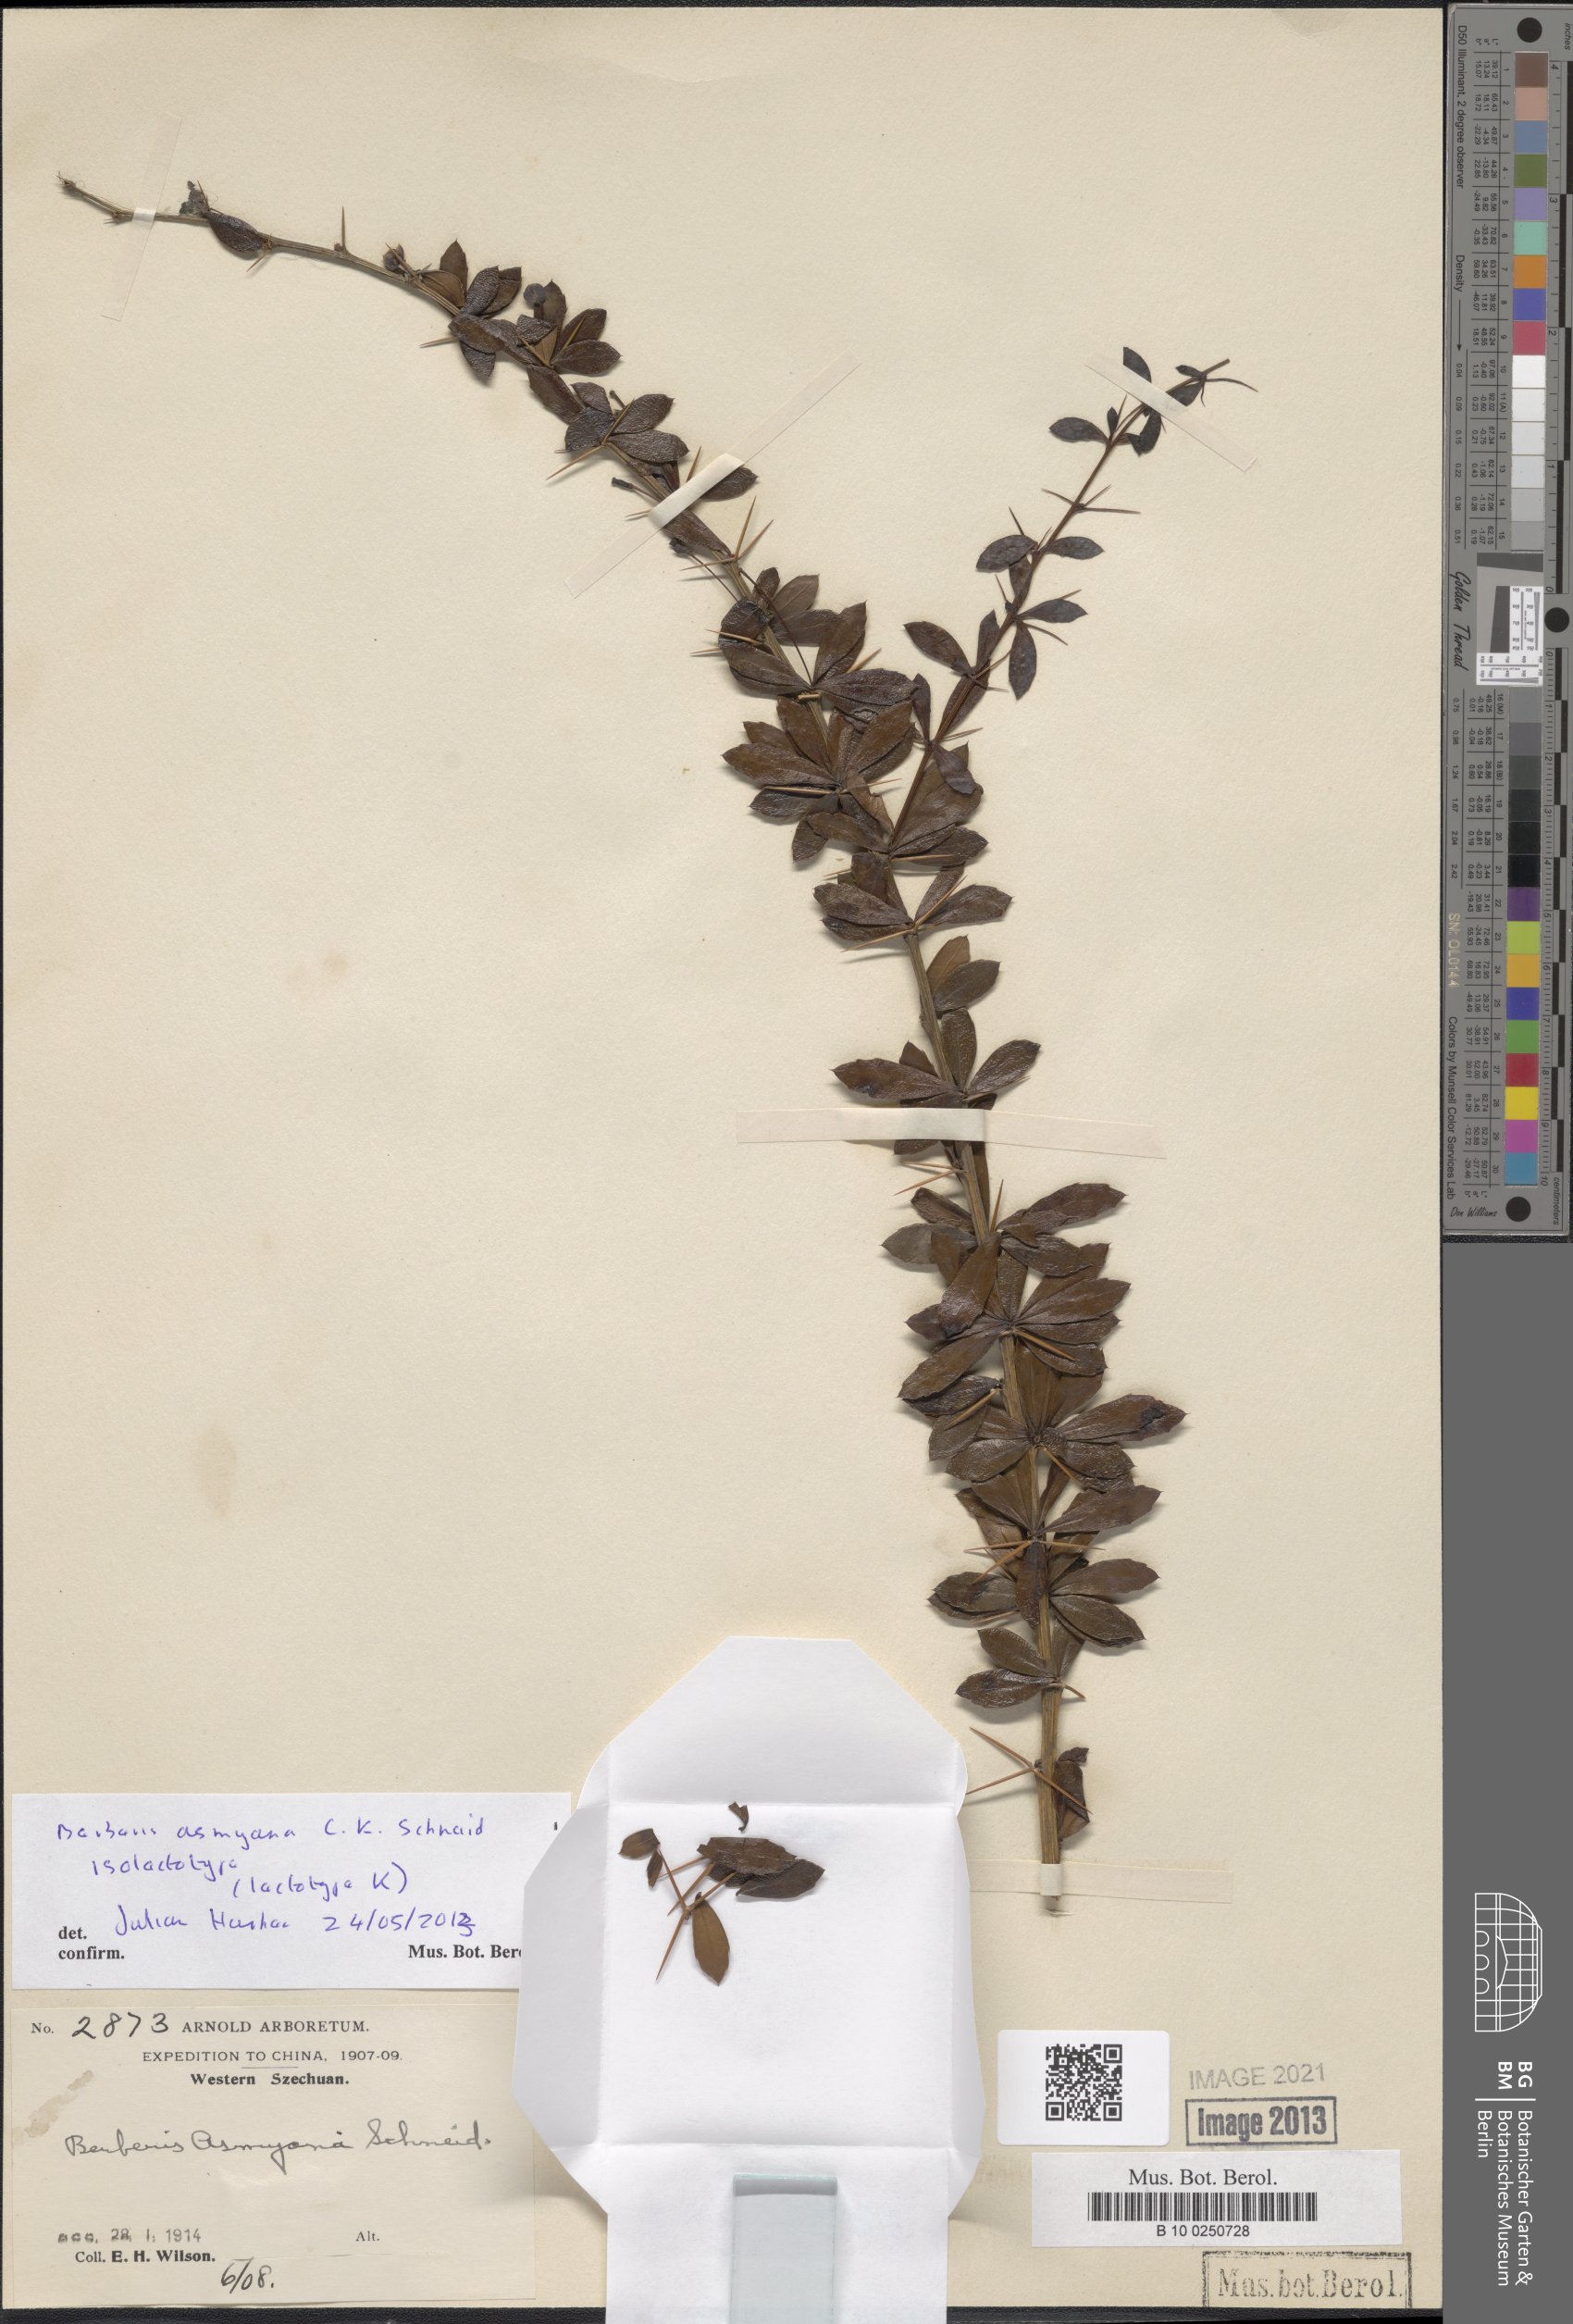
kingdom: Plantae
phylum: Tracheophyta
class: Magnoliopsida
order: Ranunculales
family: Berberidaceae
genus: Berberis
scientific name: Berberis asmyana
